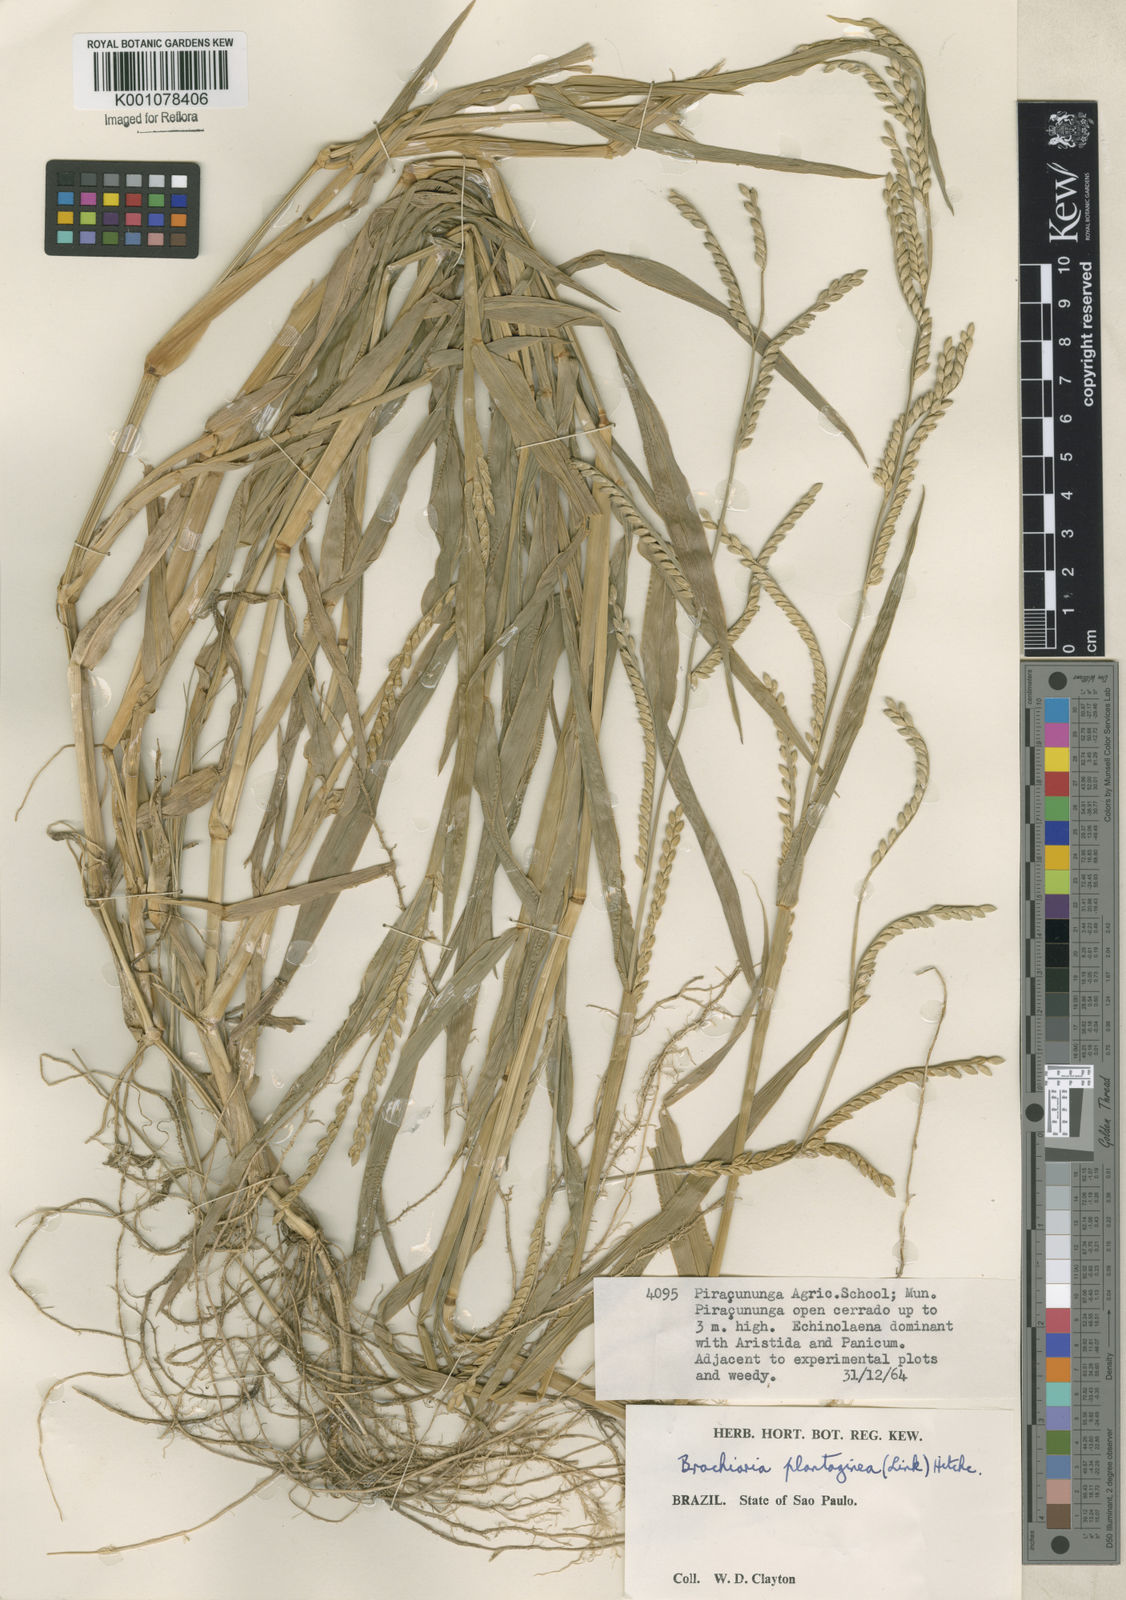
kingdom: Plantae
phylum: Tracheophyta
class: Liliopsida
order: Poales
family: Poaceae
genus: Urochloa
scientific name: Urochloa plantaginea
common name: Plantain signalgrass
